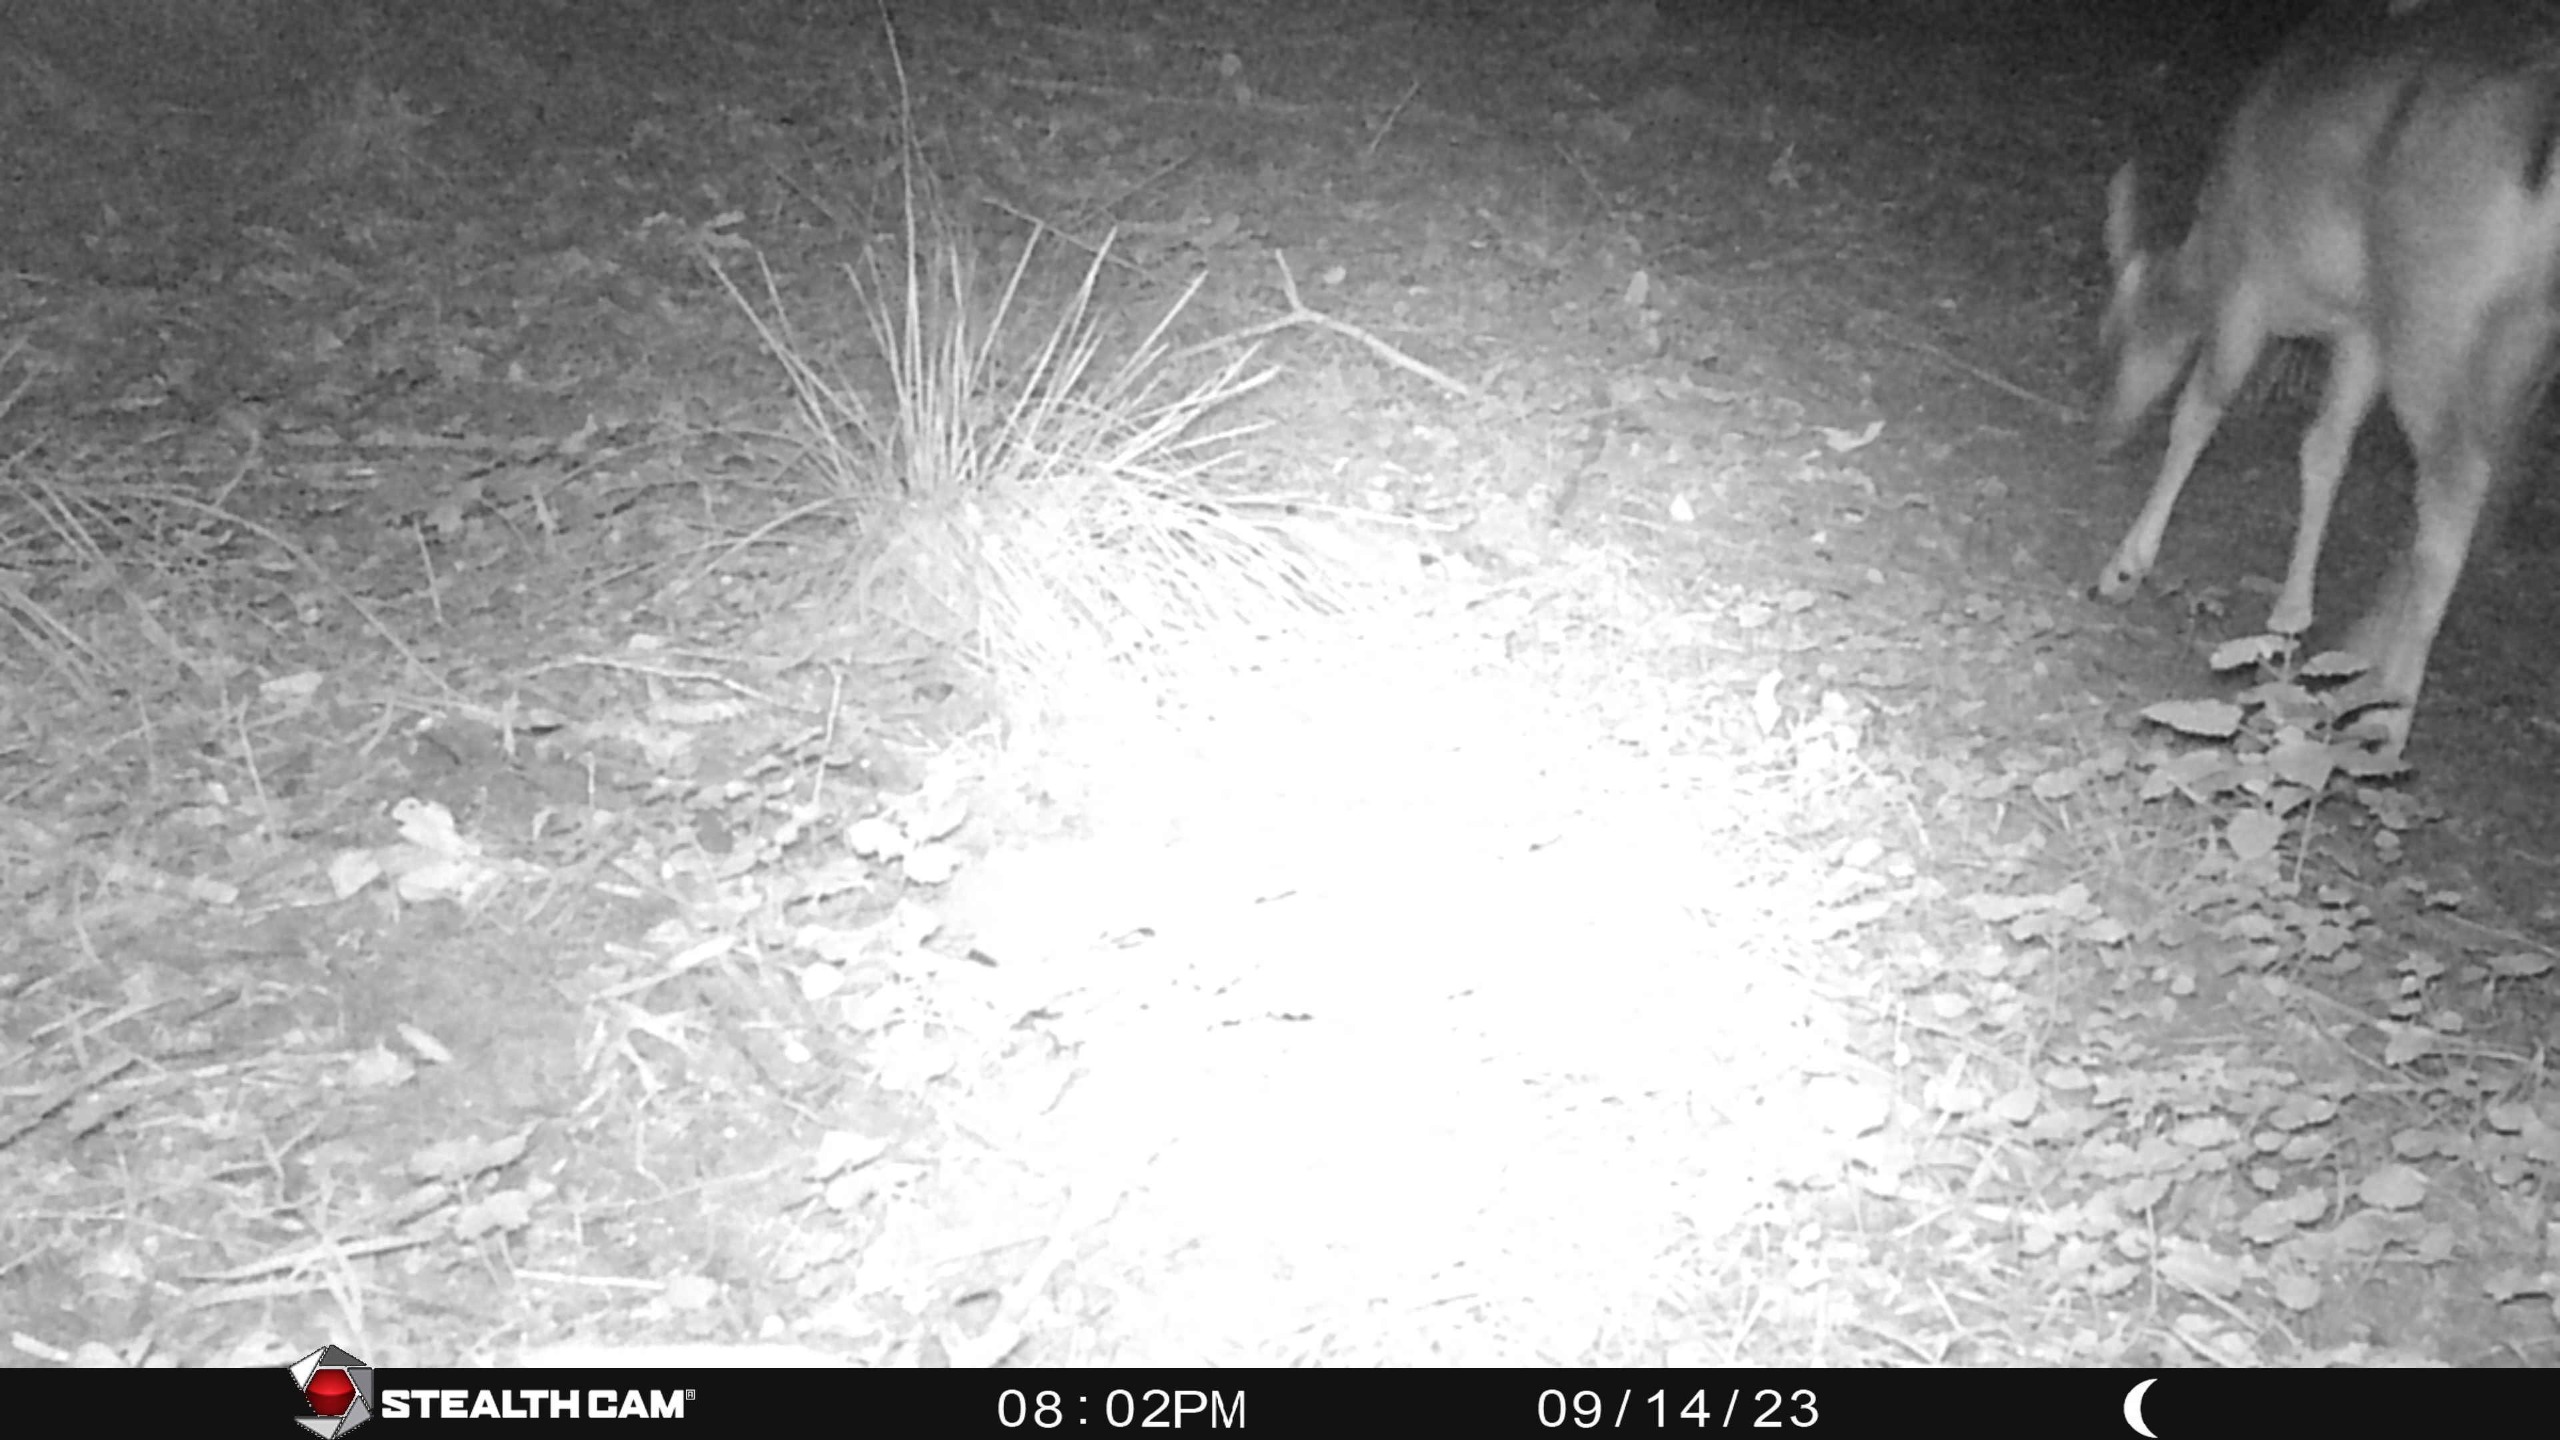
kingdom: Animalia
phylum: Chordata
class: Mammalia
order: Artiodactyla
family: Cervidae
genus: Dama
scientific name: Dama dama
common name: Dådyr
